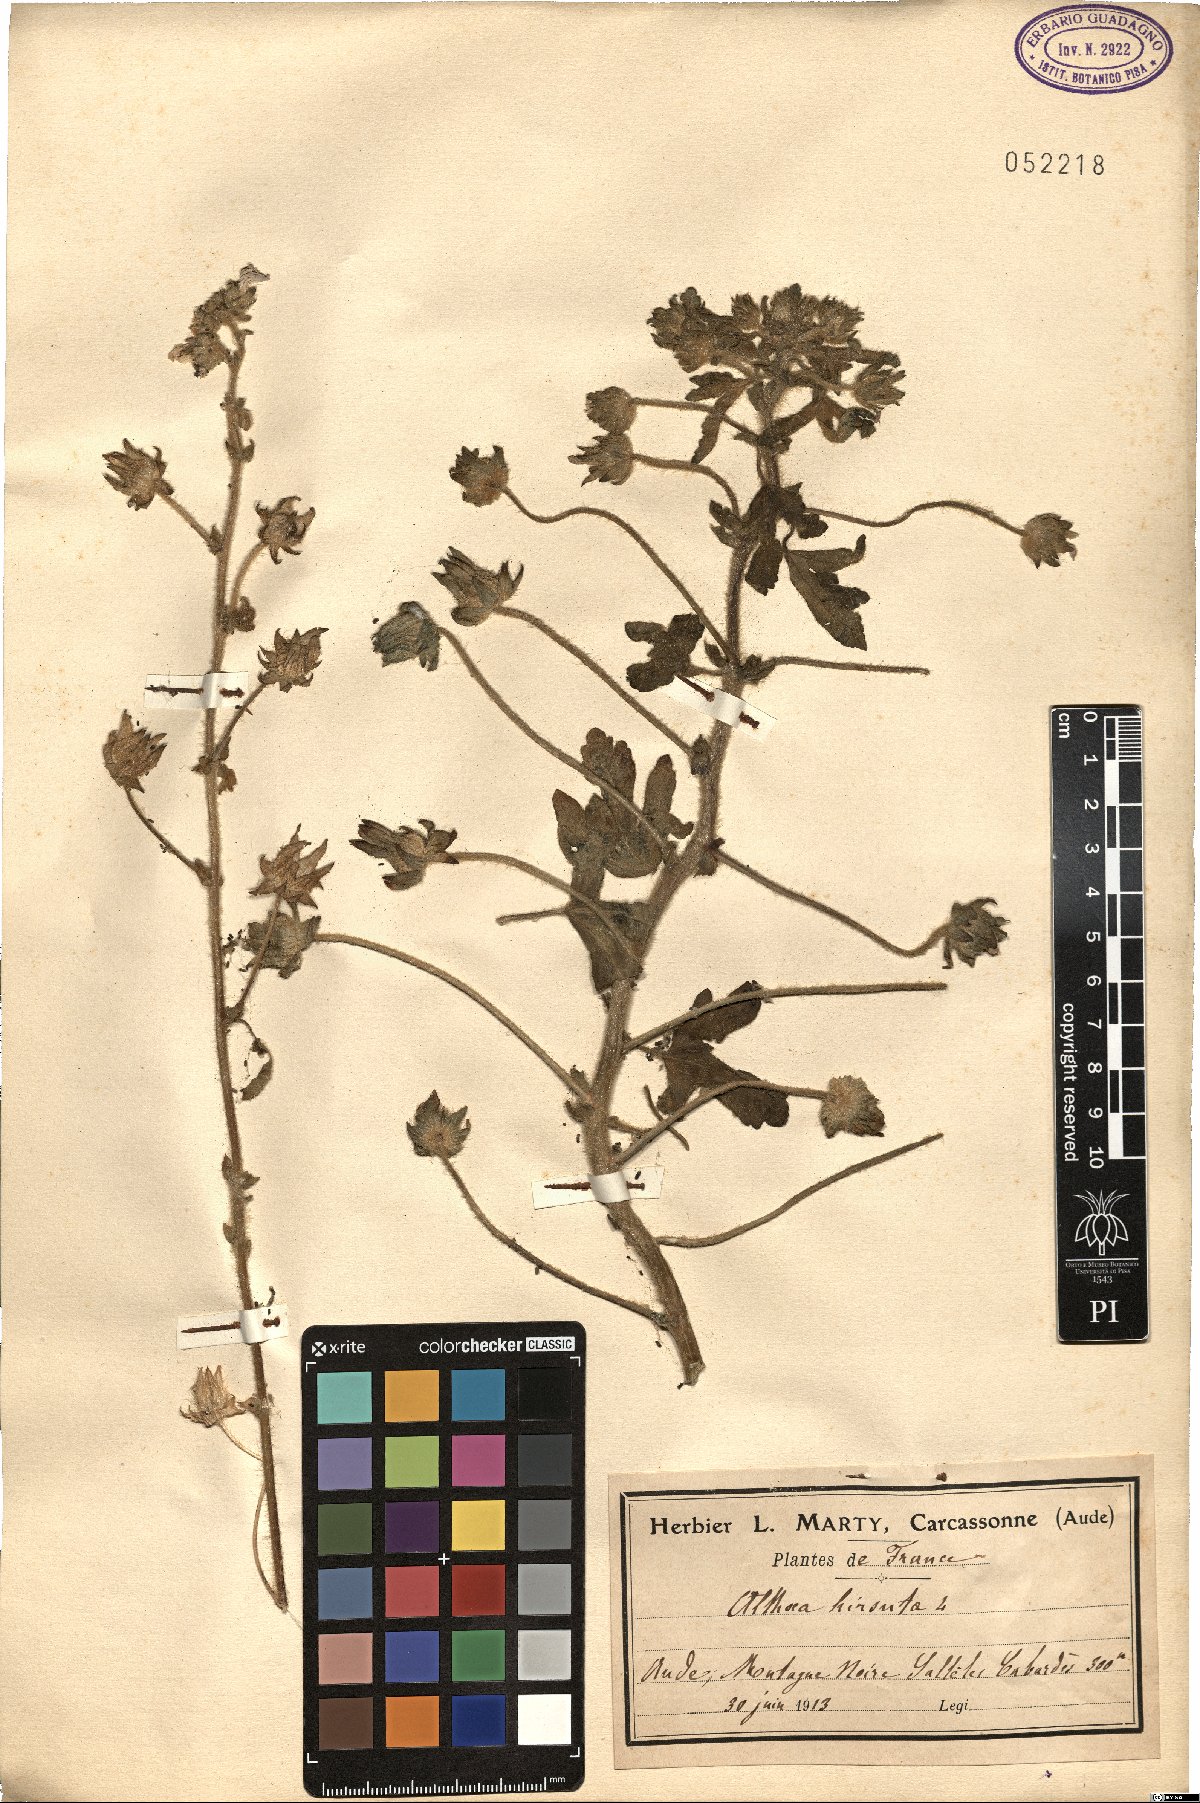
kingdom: Plantae
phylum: Tracheophyta
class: Magnoliopsida
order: Malvales
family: Malvaceae
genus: Althaea
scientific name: Althaea hirsuta
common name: Rough marsh-mallow
